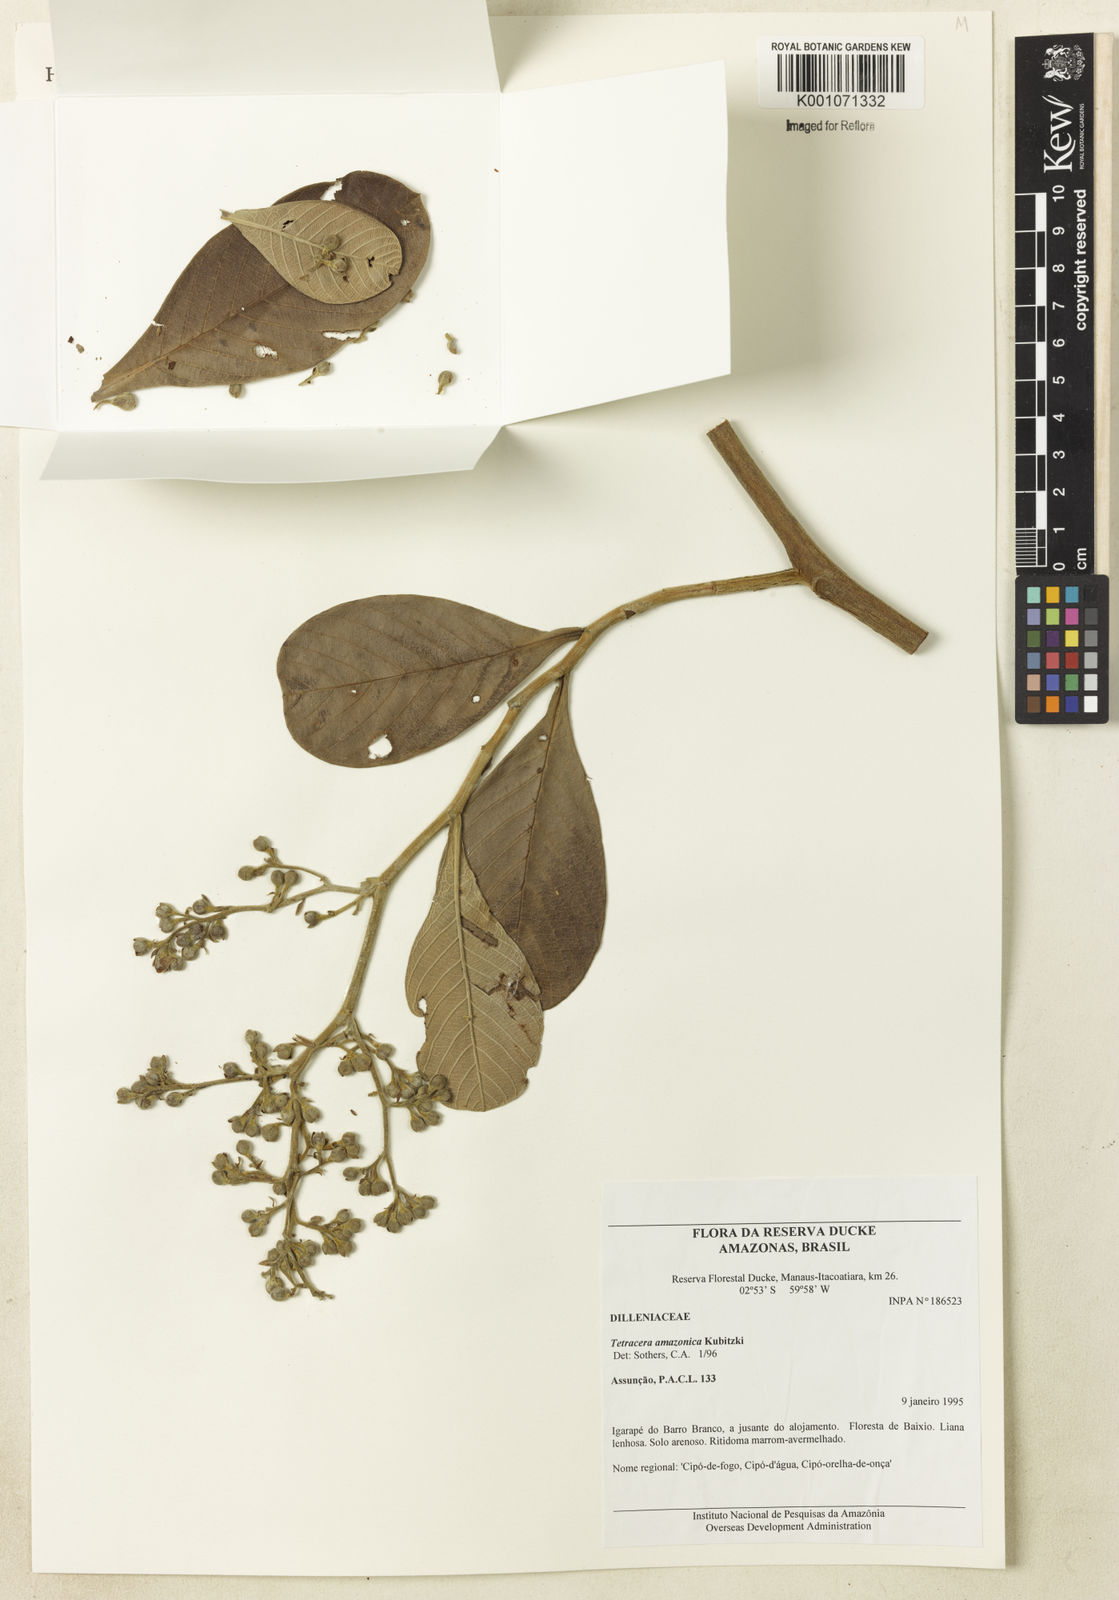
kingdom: Plantae
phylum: Tracheophyta
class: Magnoliopsida
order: Dilleniales
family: Dilleniaceae
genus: Tetracera
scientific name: Tetracera amazonica
